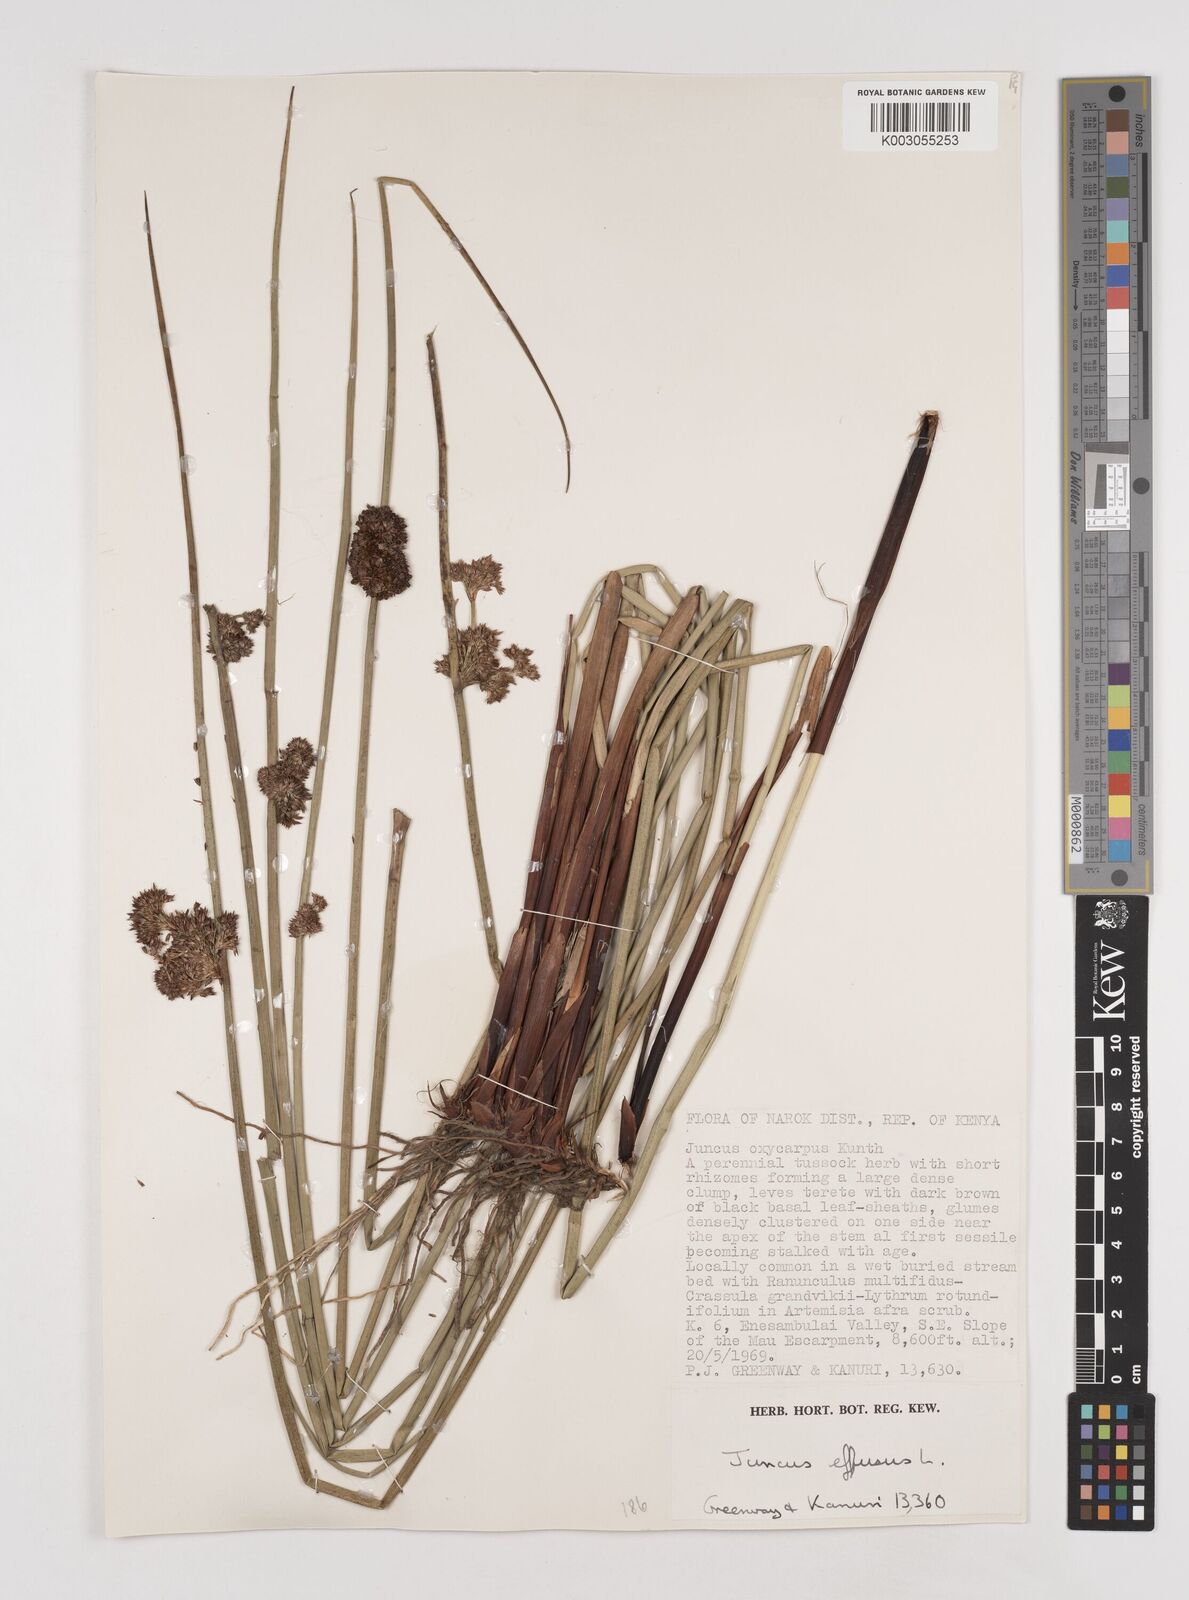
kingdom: Plantae
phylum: Tracheophyta
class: Liliopsida
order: Poales
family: Juncaceae
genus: Juncus
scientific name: Juncus effusus
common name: Soft rush
